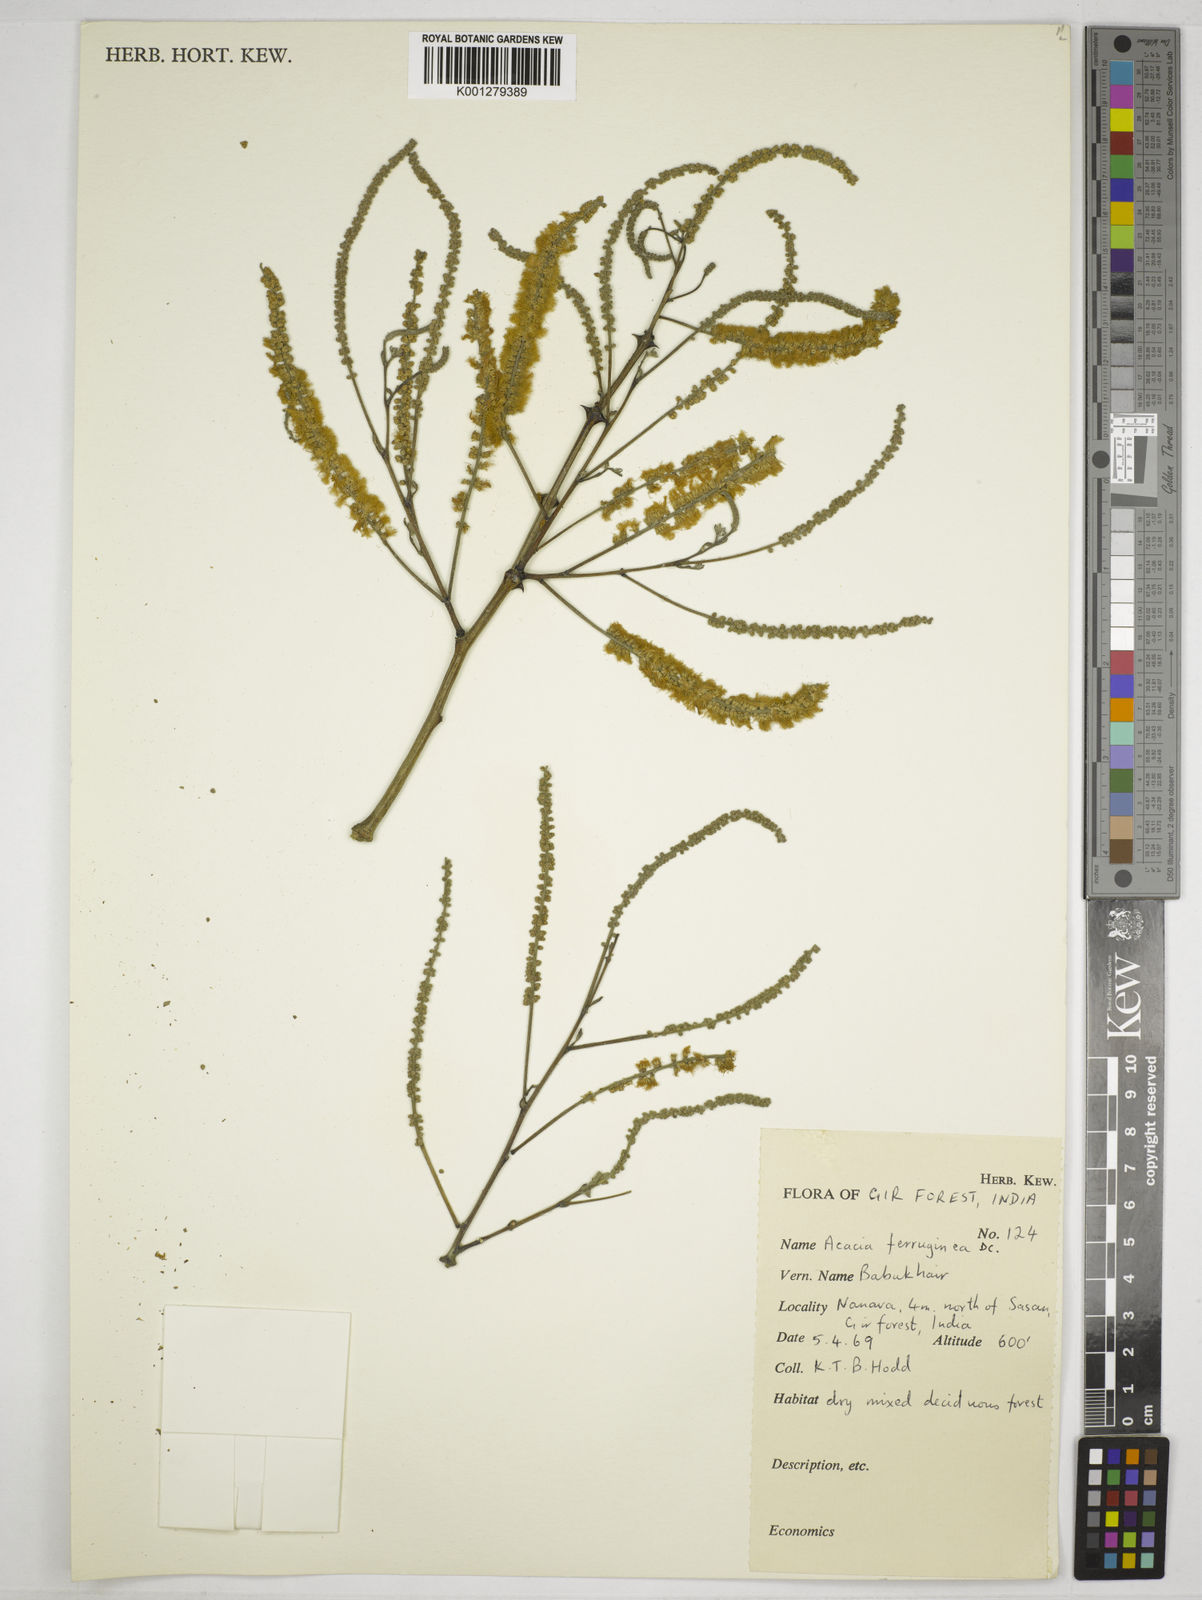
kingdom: Plantae
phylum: Tracheophyta
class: Magnoliopsida
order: Fabales
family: Fabaceae
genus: Senegalia
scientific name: Senegalia ferruginea
